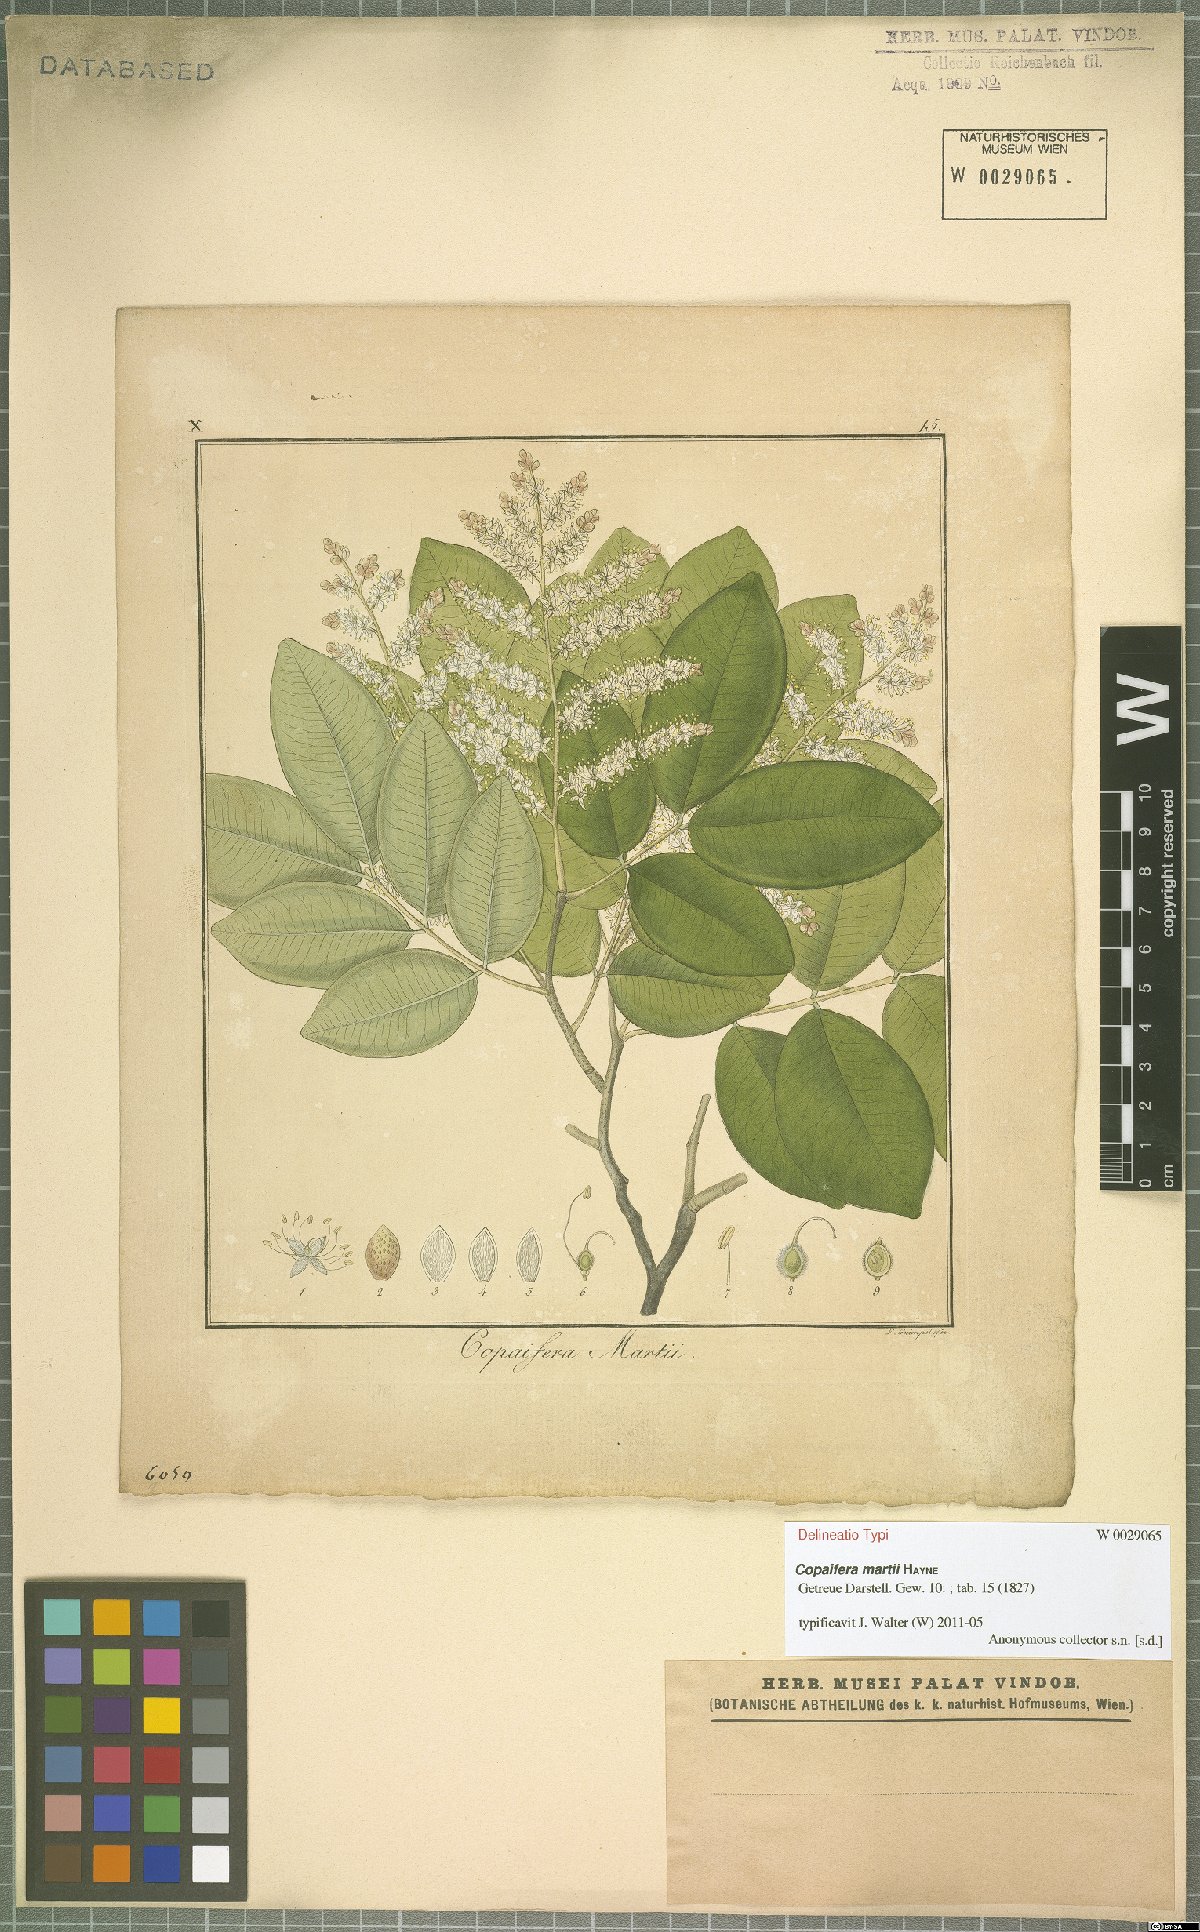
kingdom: Plantae
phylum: Tracheophyta
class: Magnoliopsida
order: Fabales
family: Fabaceae
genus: Copaifera
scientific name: Copaifera martii
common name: Copaiba
